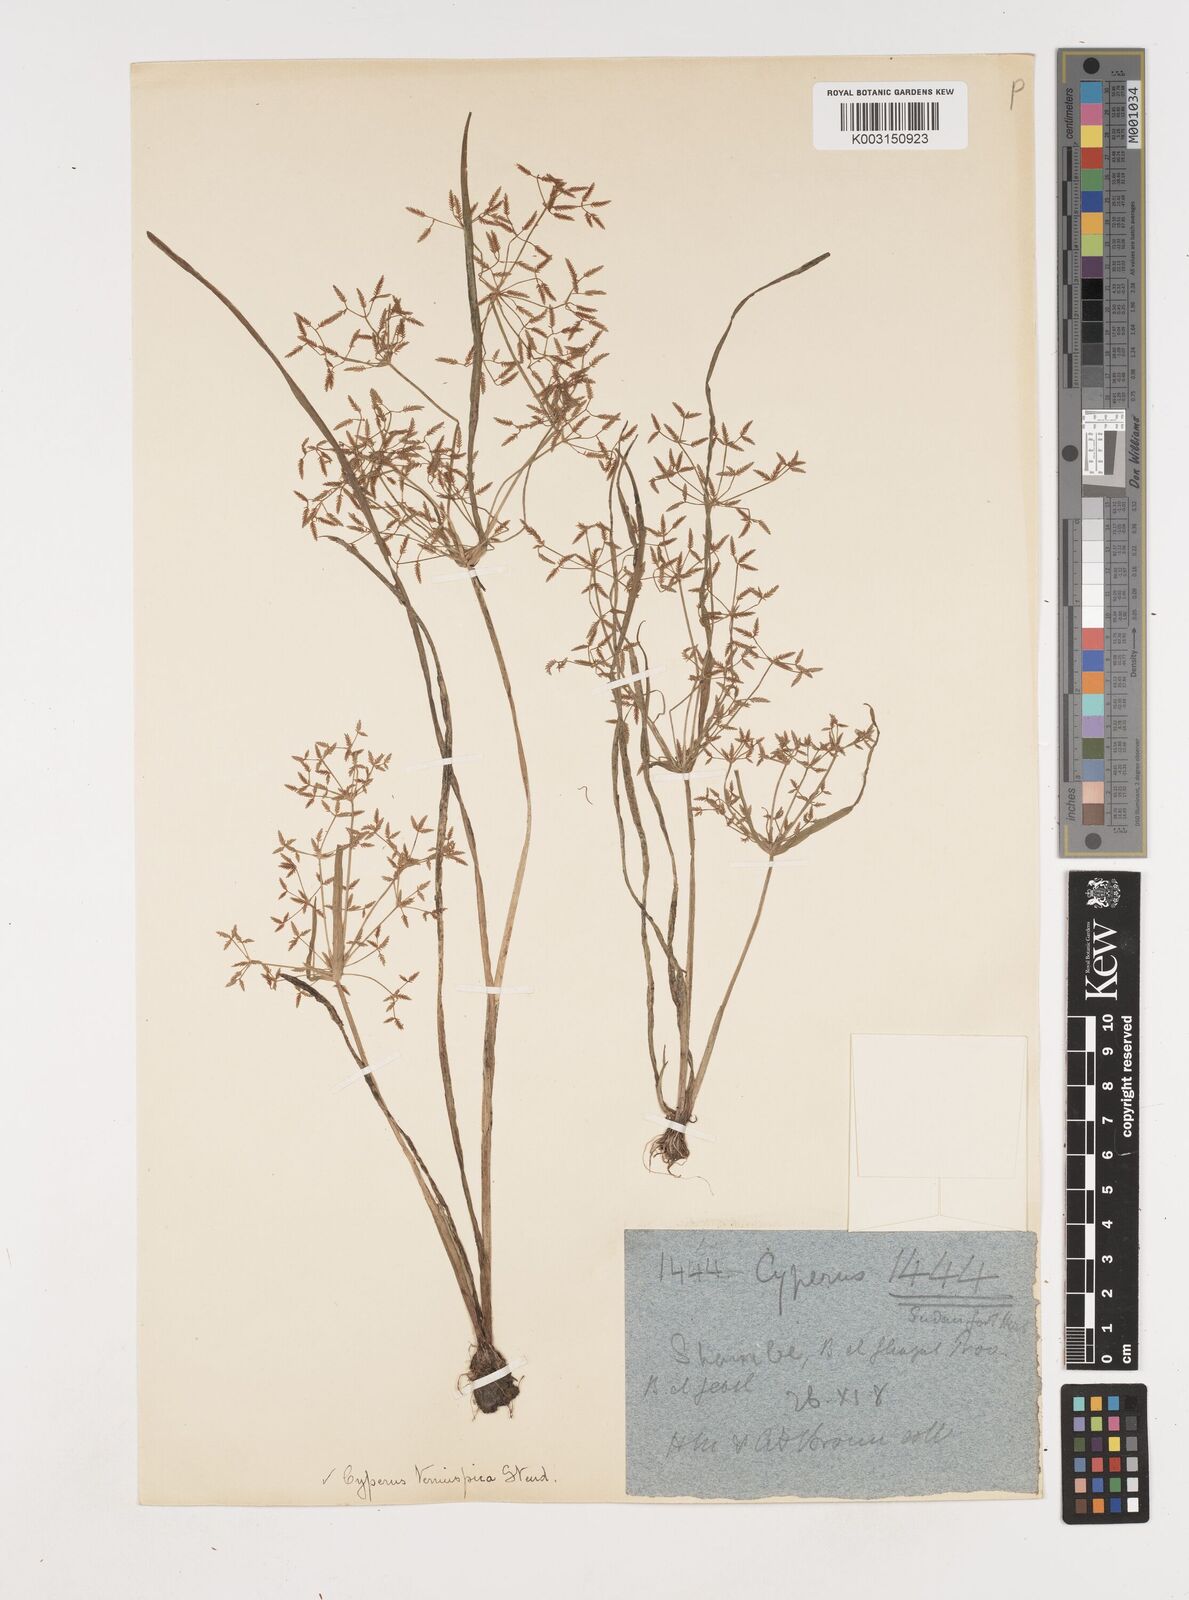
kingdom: Plantae
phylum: Tracheophyta
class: Liliopsida
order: Poales
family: Cyperaceae
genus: Cyperus
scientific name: Cyperus tenuispica
